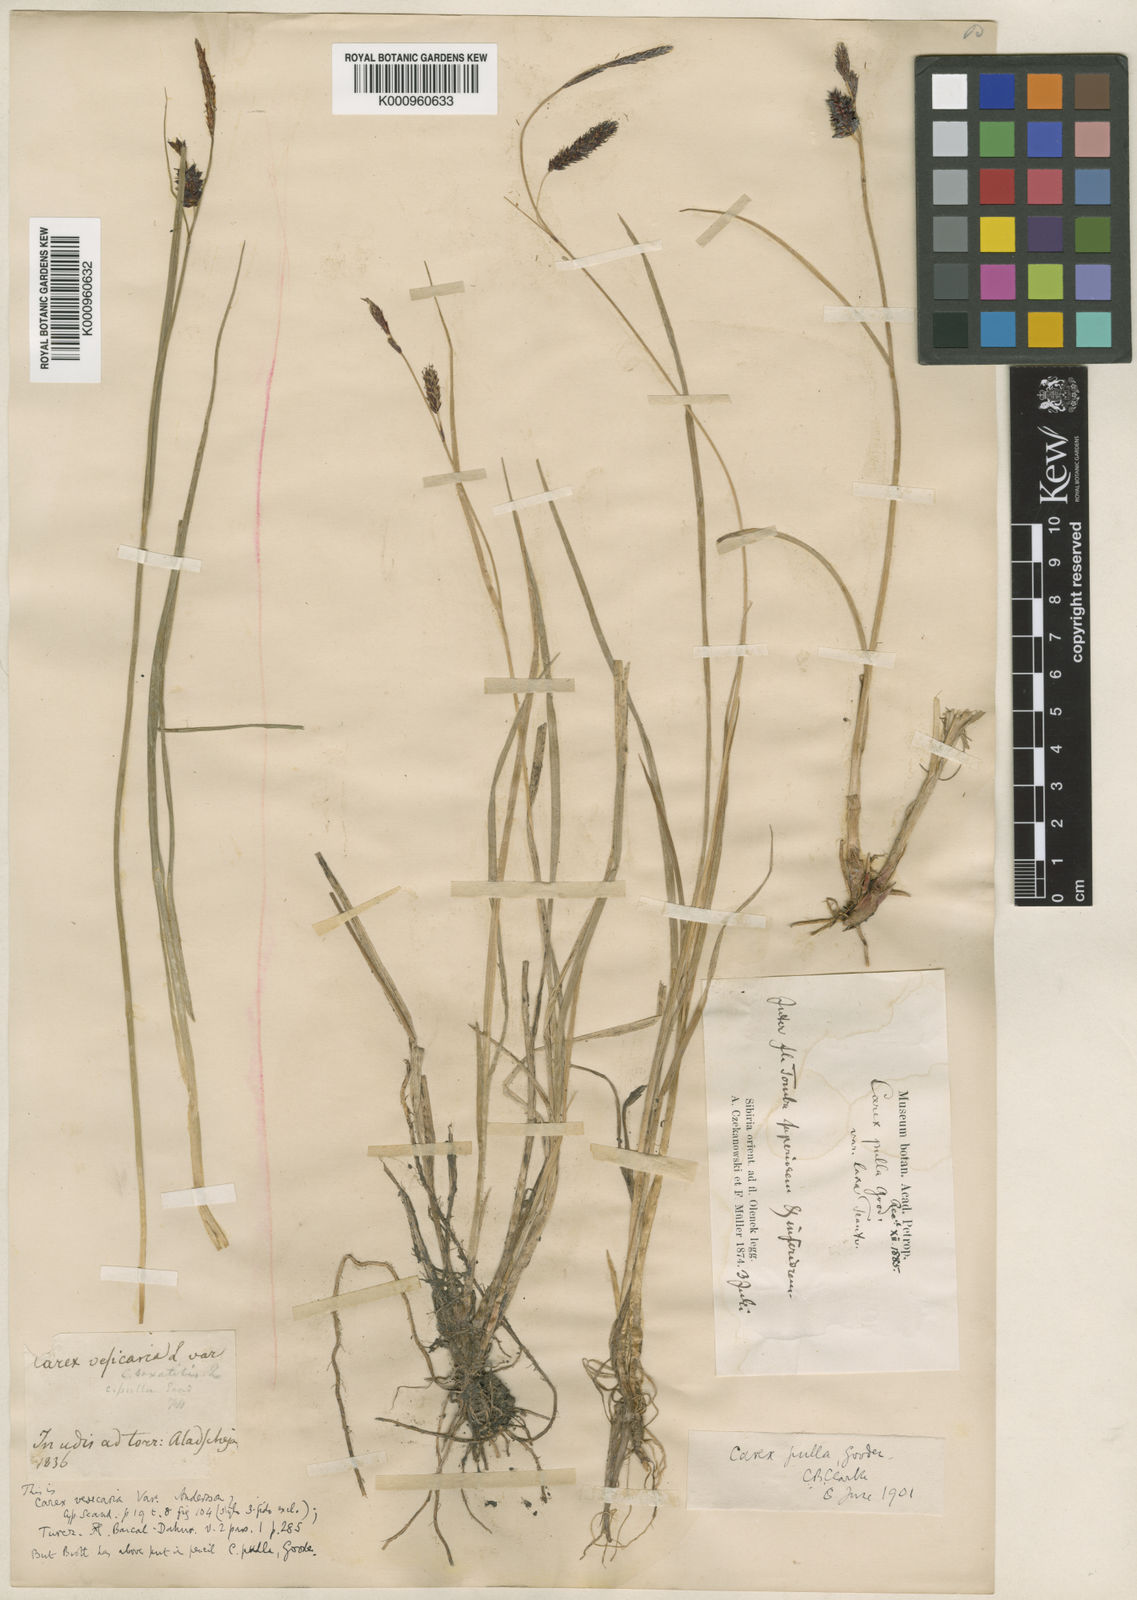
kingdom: Plantae
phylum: Tracheophyta
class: Liliopsida
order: Poales
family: Cyperaceae
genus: Carex
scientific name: Carex vesicaria
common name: Bladder-sedge
